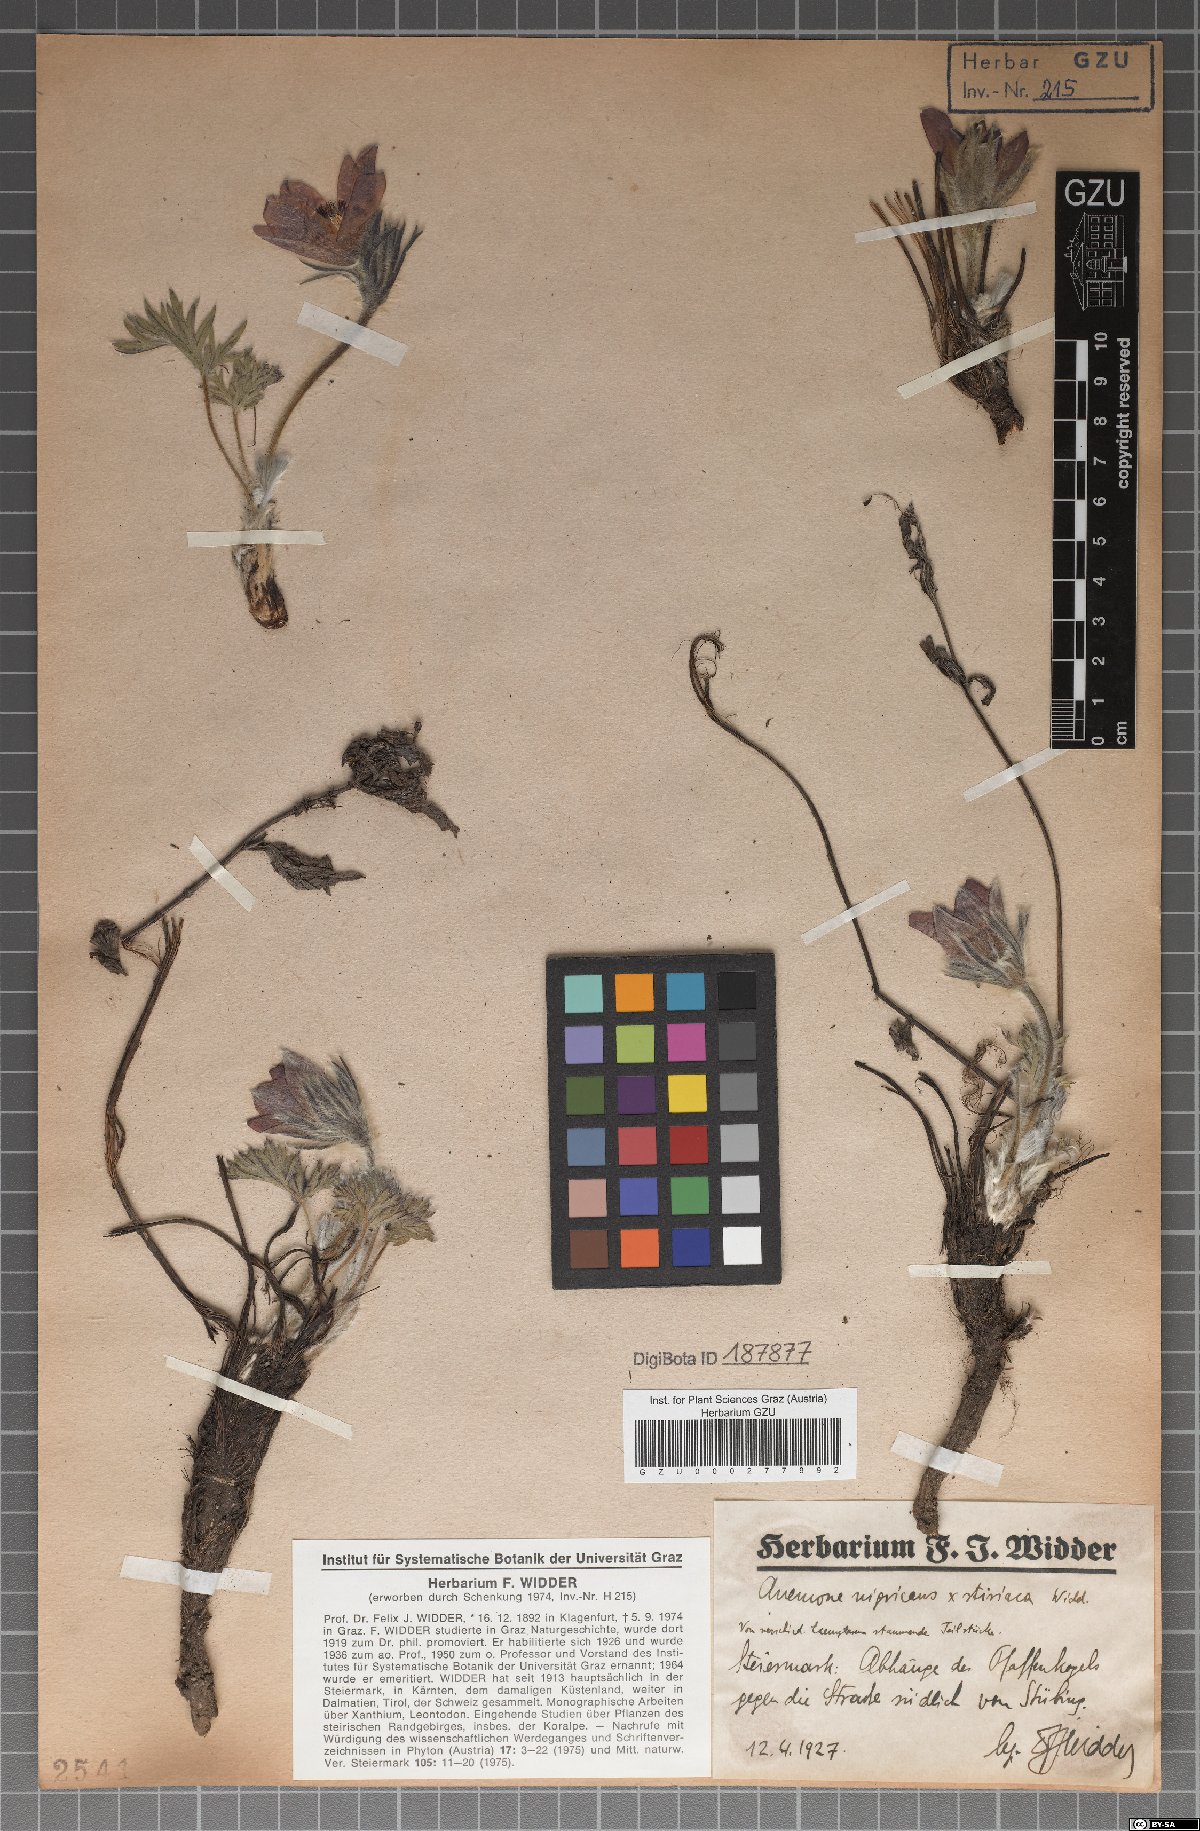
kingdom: Plantae
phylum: Tracheophyta
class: Magnoliopsida
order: Ranunculales
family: Ranunculaceae
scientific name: Ranunculaceae
